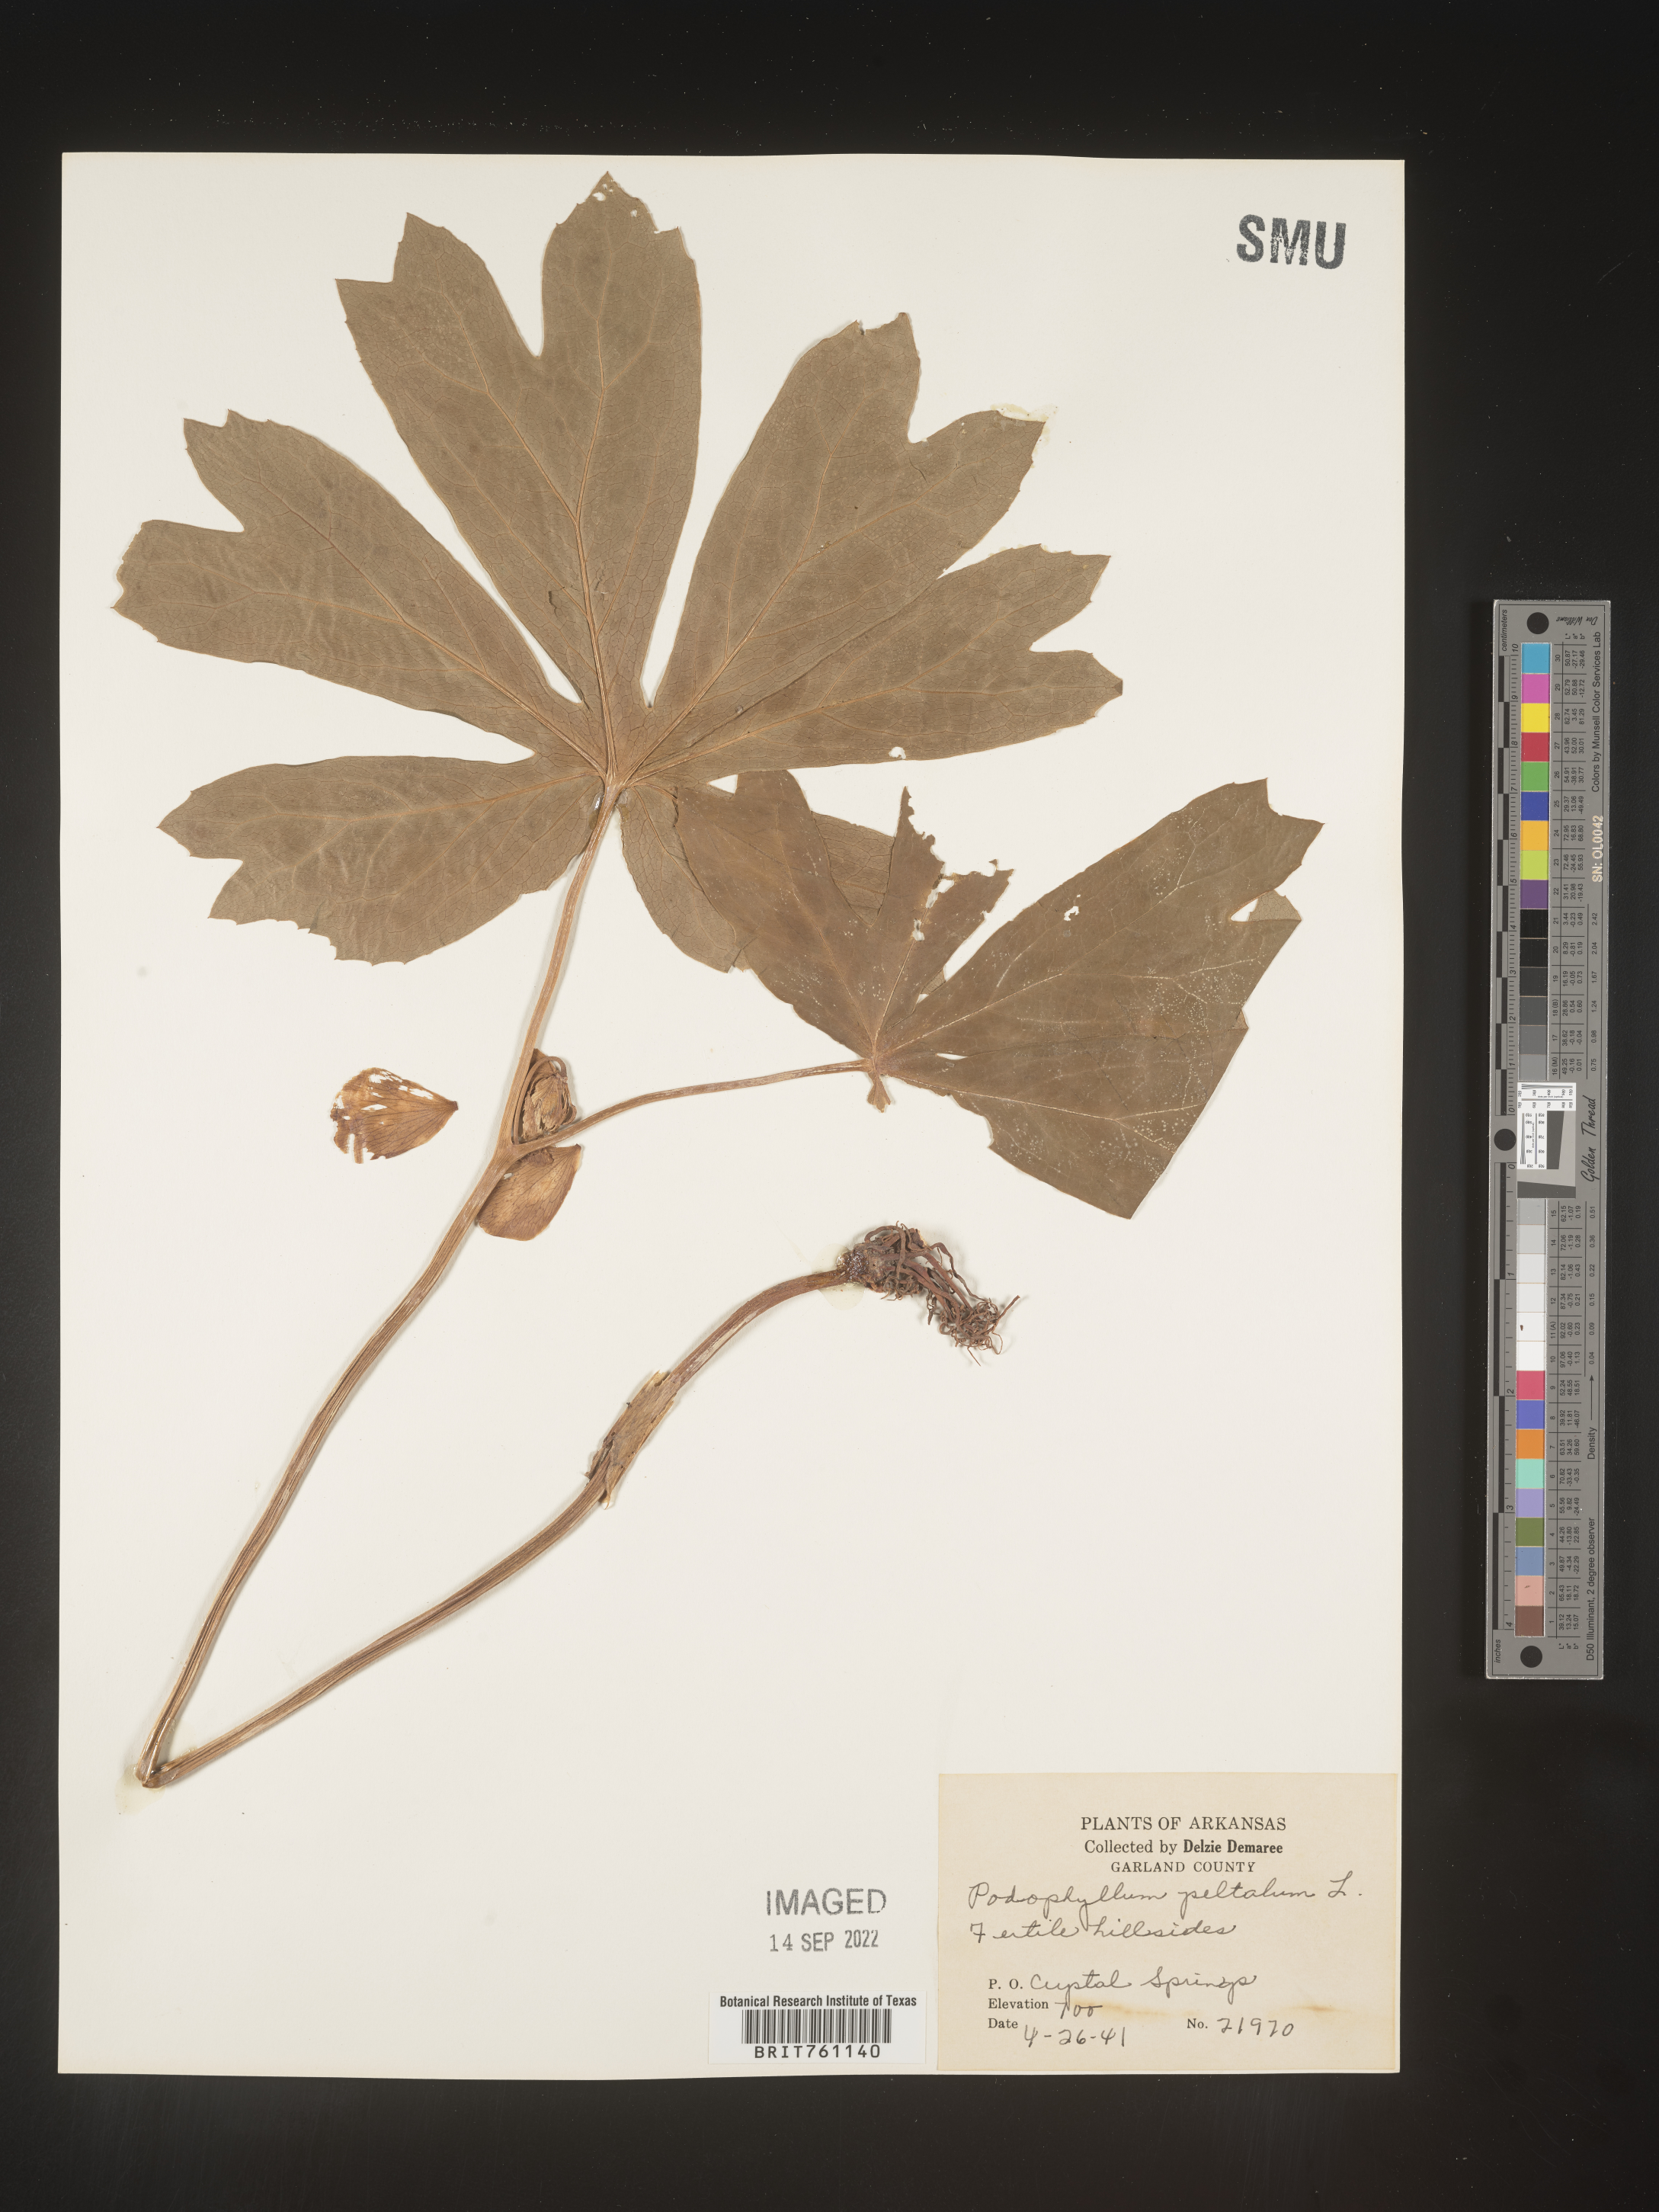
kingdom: Plantae
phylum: Tracheophyta
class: Magnoliopsida
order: Ranunculales
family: Berberidaceae
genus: Podophyllum
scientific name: Podophyllum peltatum
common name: Wild mandrake
